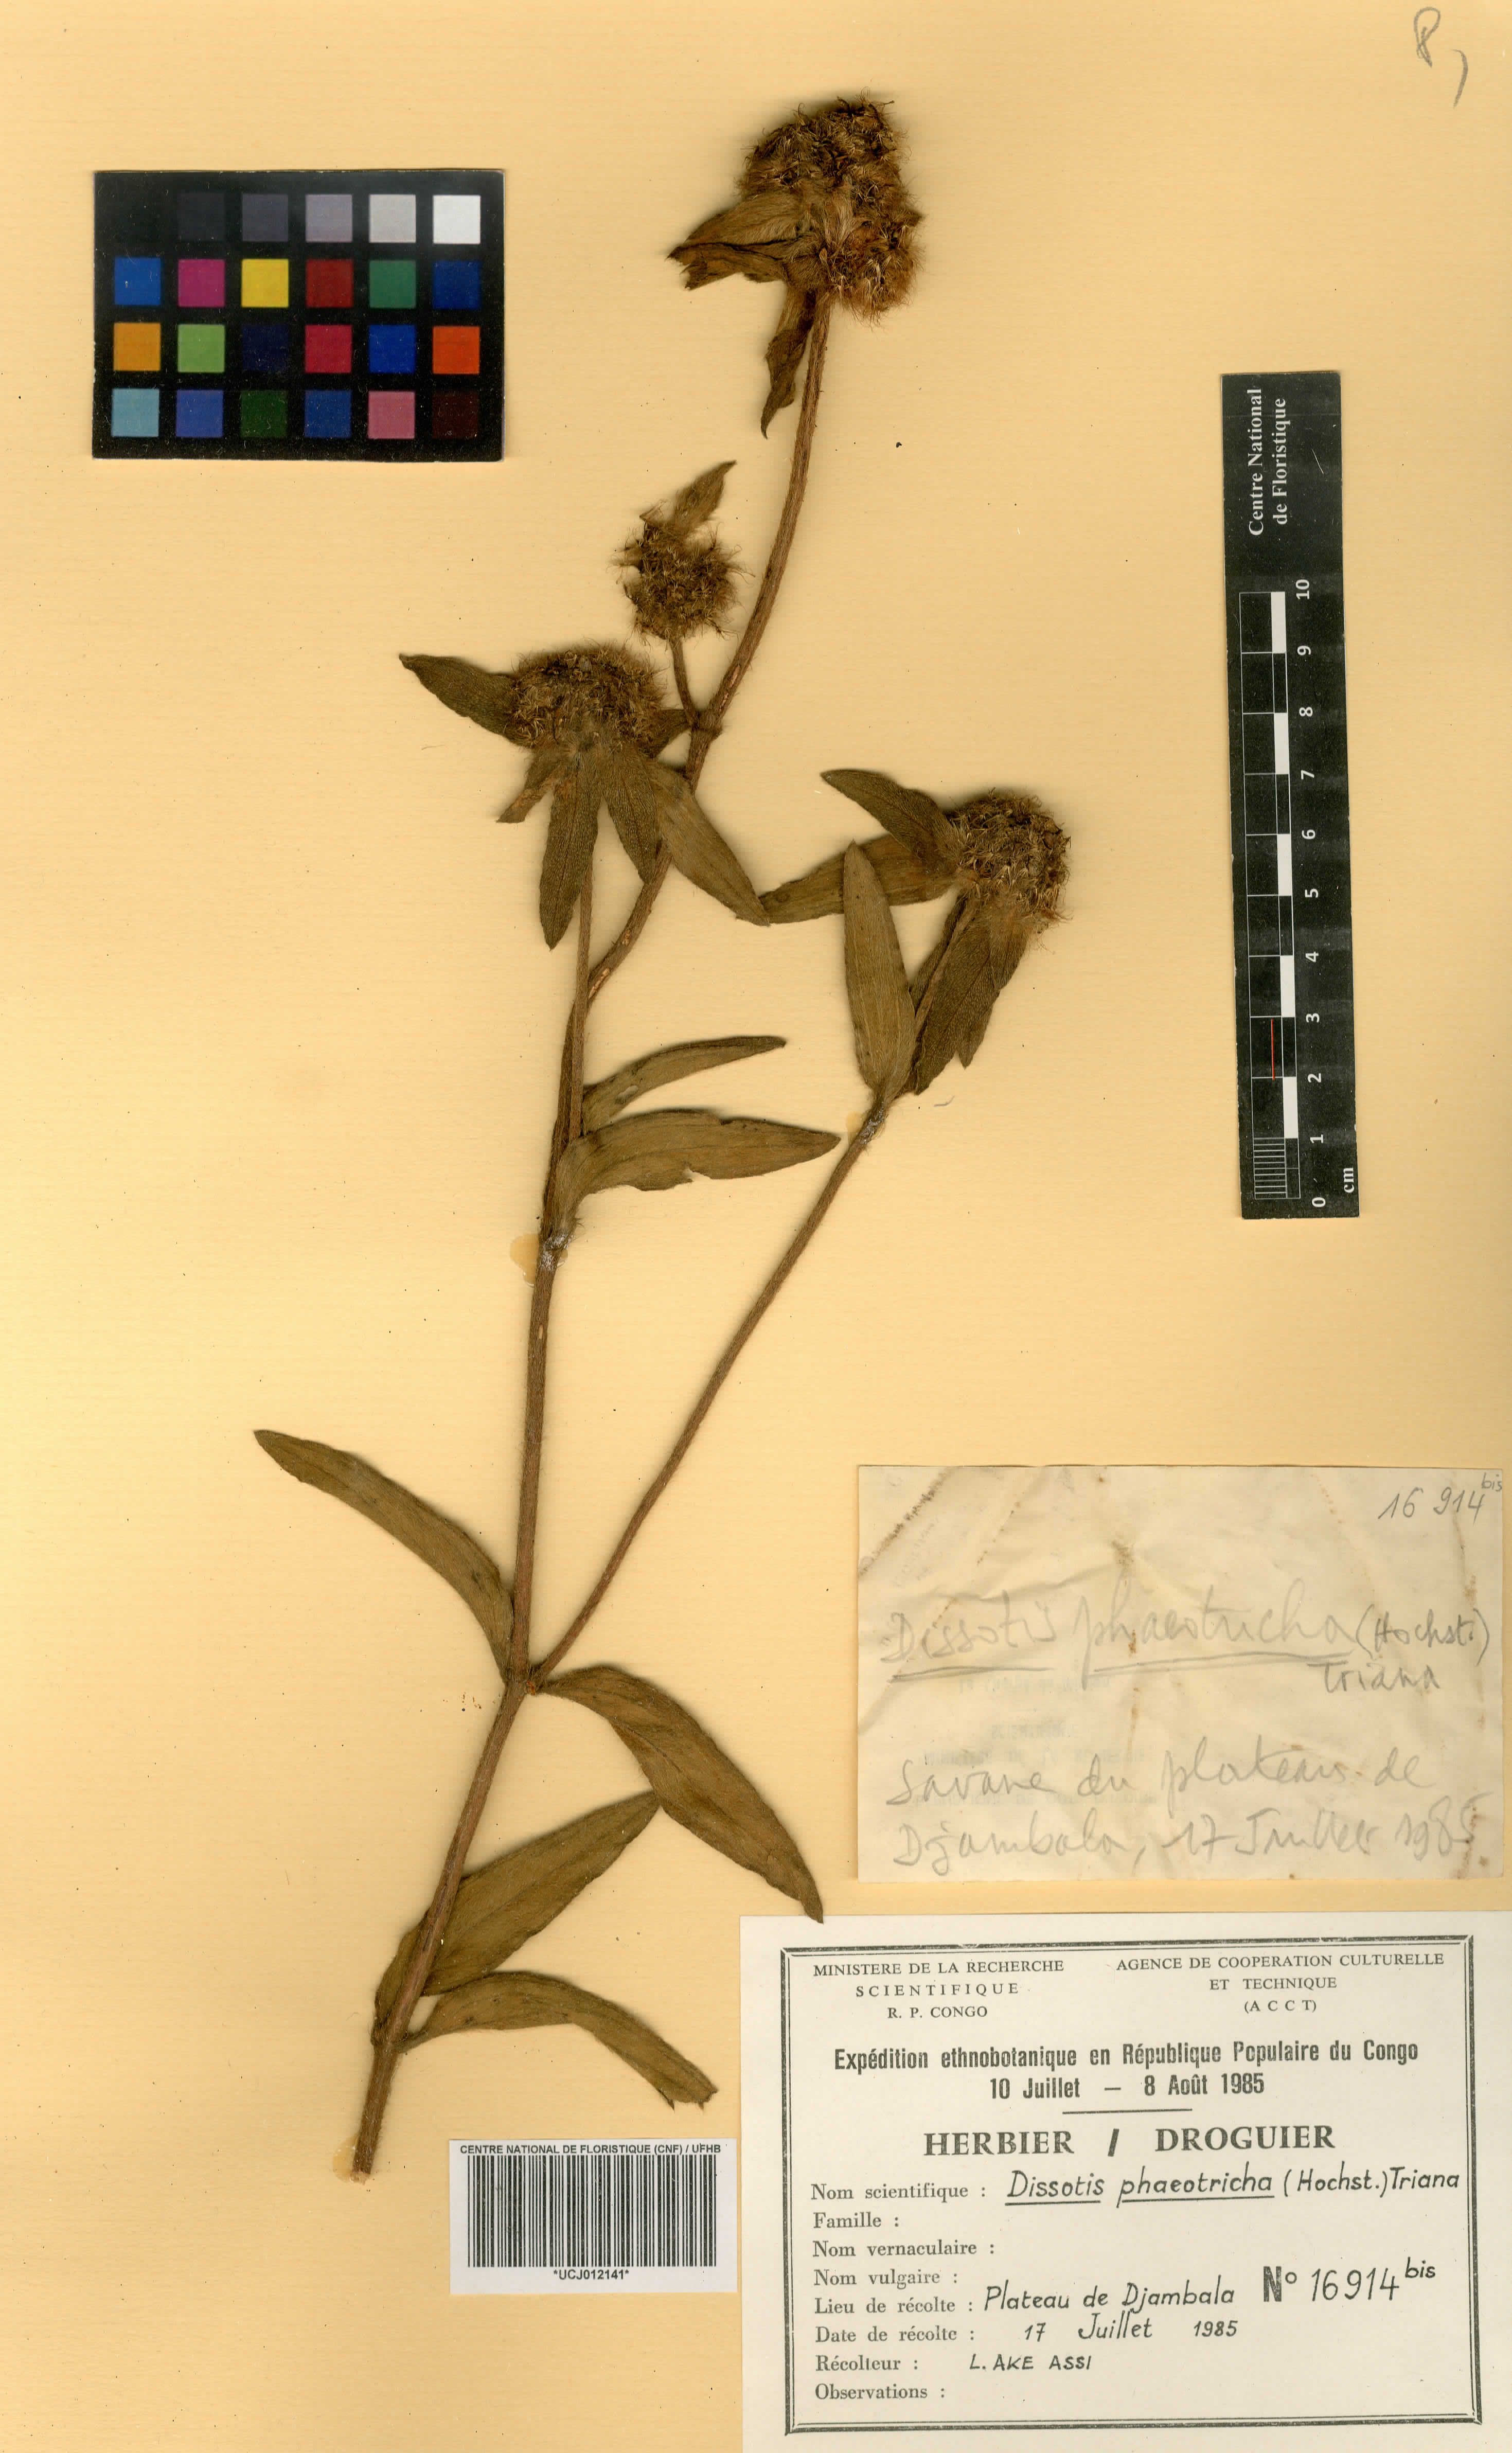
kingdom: Plantae
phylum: Tracheophyta
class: Magnoliopsida
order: Myrtales
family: Melastomataceae
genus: Melastomastrum
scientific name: Melastomastrum afzelii
